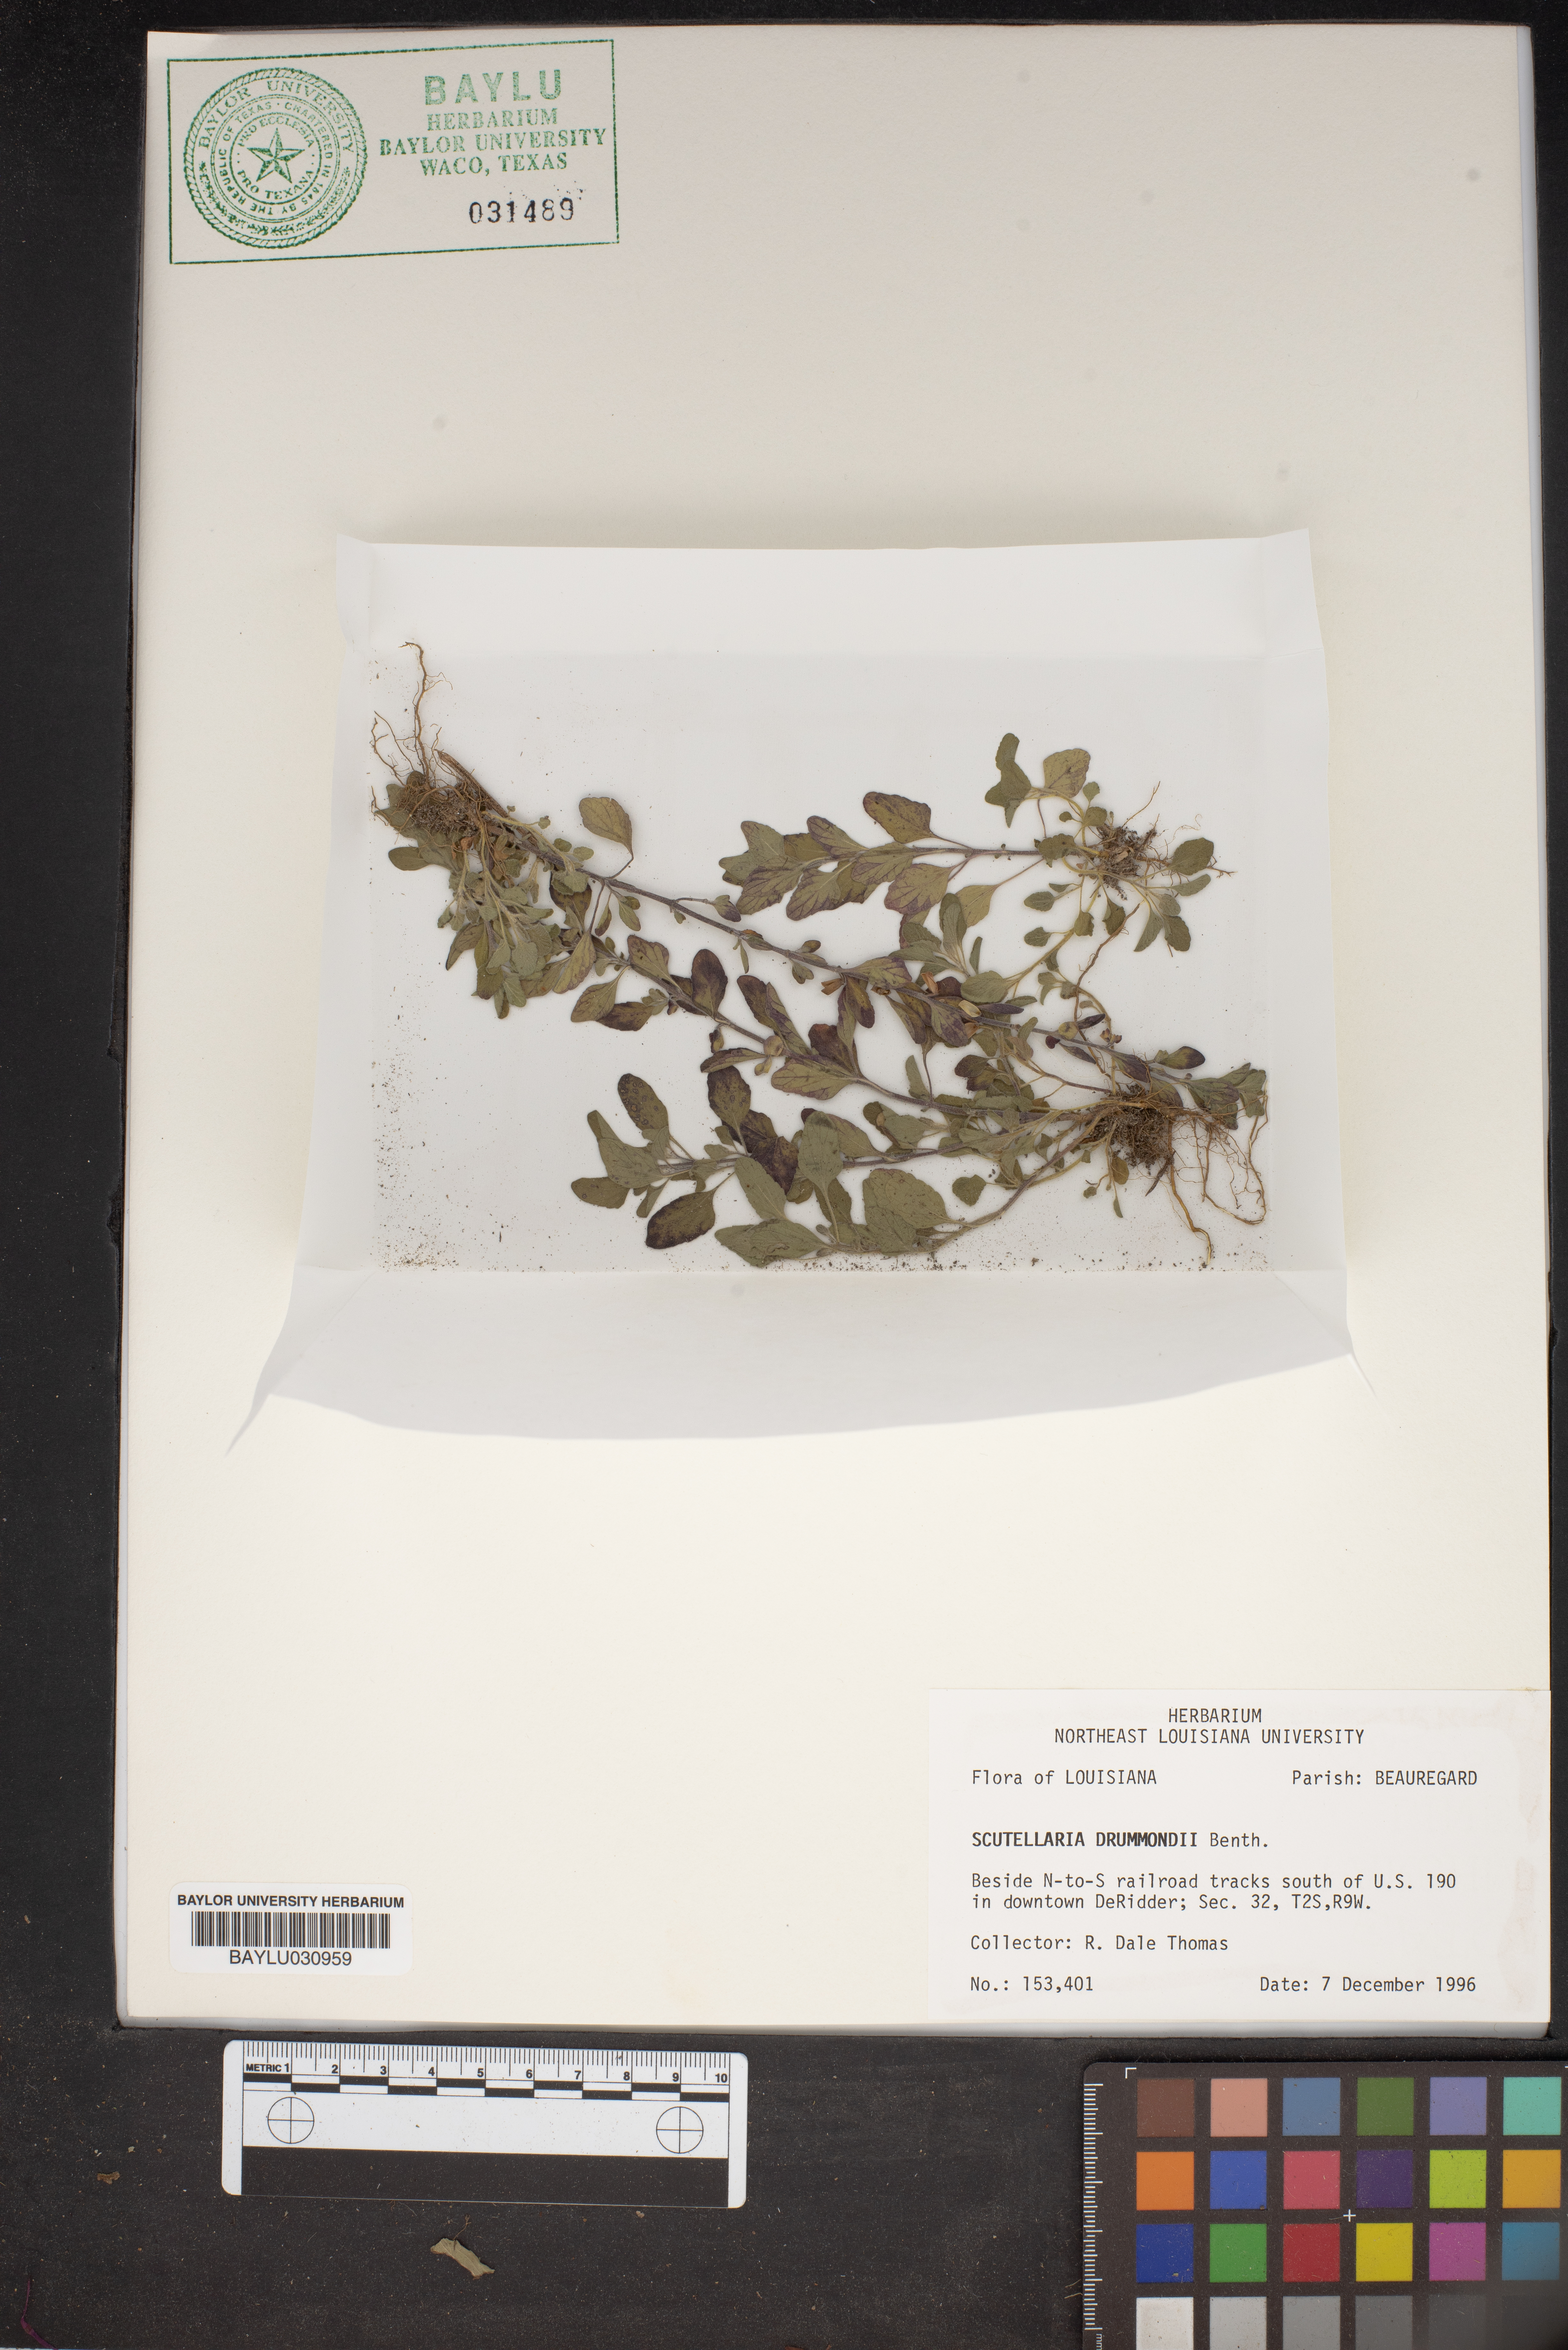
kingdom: Plantae
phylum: Tracheophyta
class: Magnoliopsida
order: Lamiales
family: Lamiaceae
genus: Scutellaria
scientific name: Scutellaria drummondii
